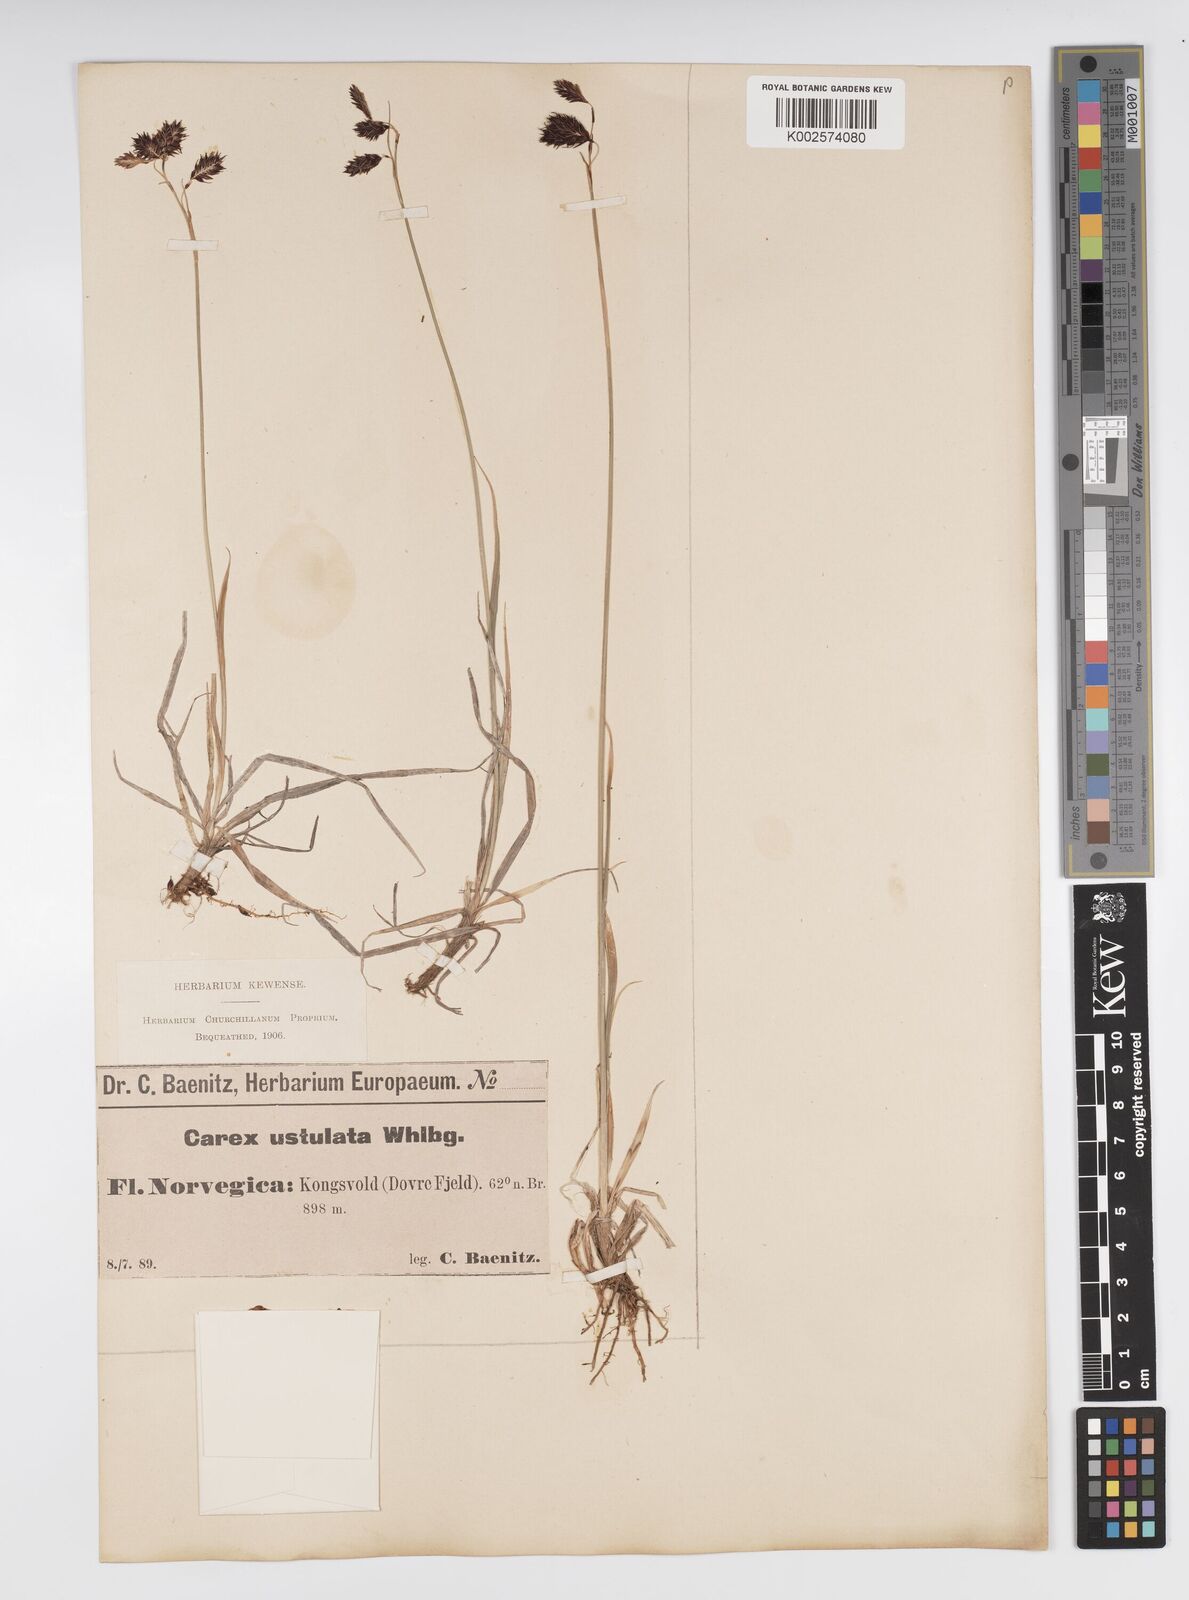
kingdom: Plantae
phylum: Tracheophyta
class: Liliopsida
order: Poales
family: Cyperaceae
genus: Carex
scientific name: Carex atrofusca
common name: Scorched alpine-sedge
